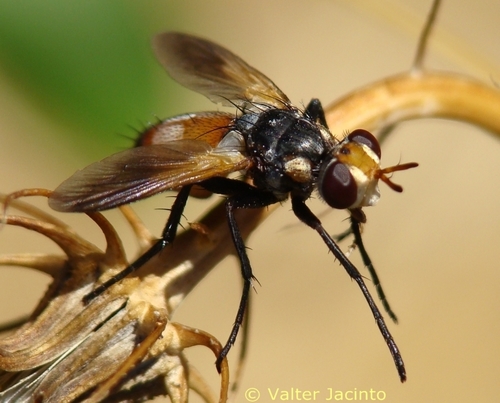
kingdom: Animalia
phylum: Arthropoda
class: Insecta
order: Diptera
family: Tachinidae
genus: Cylindromyia
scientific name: Cylindromyia rufifrons
